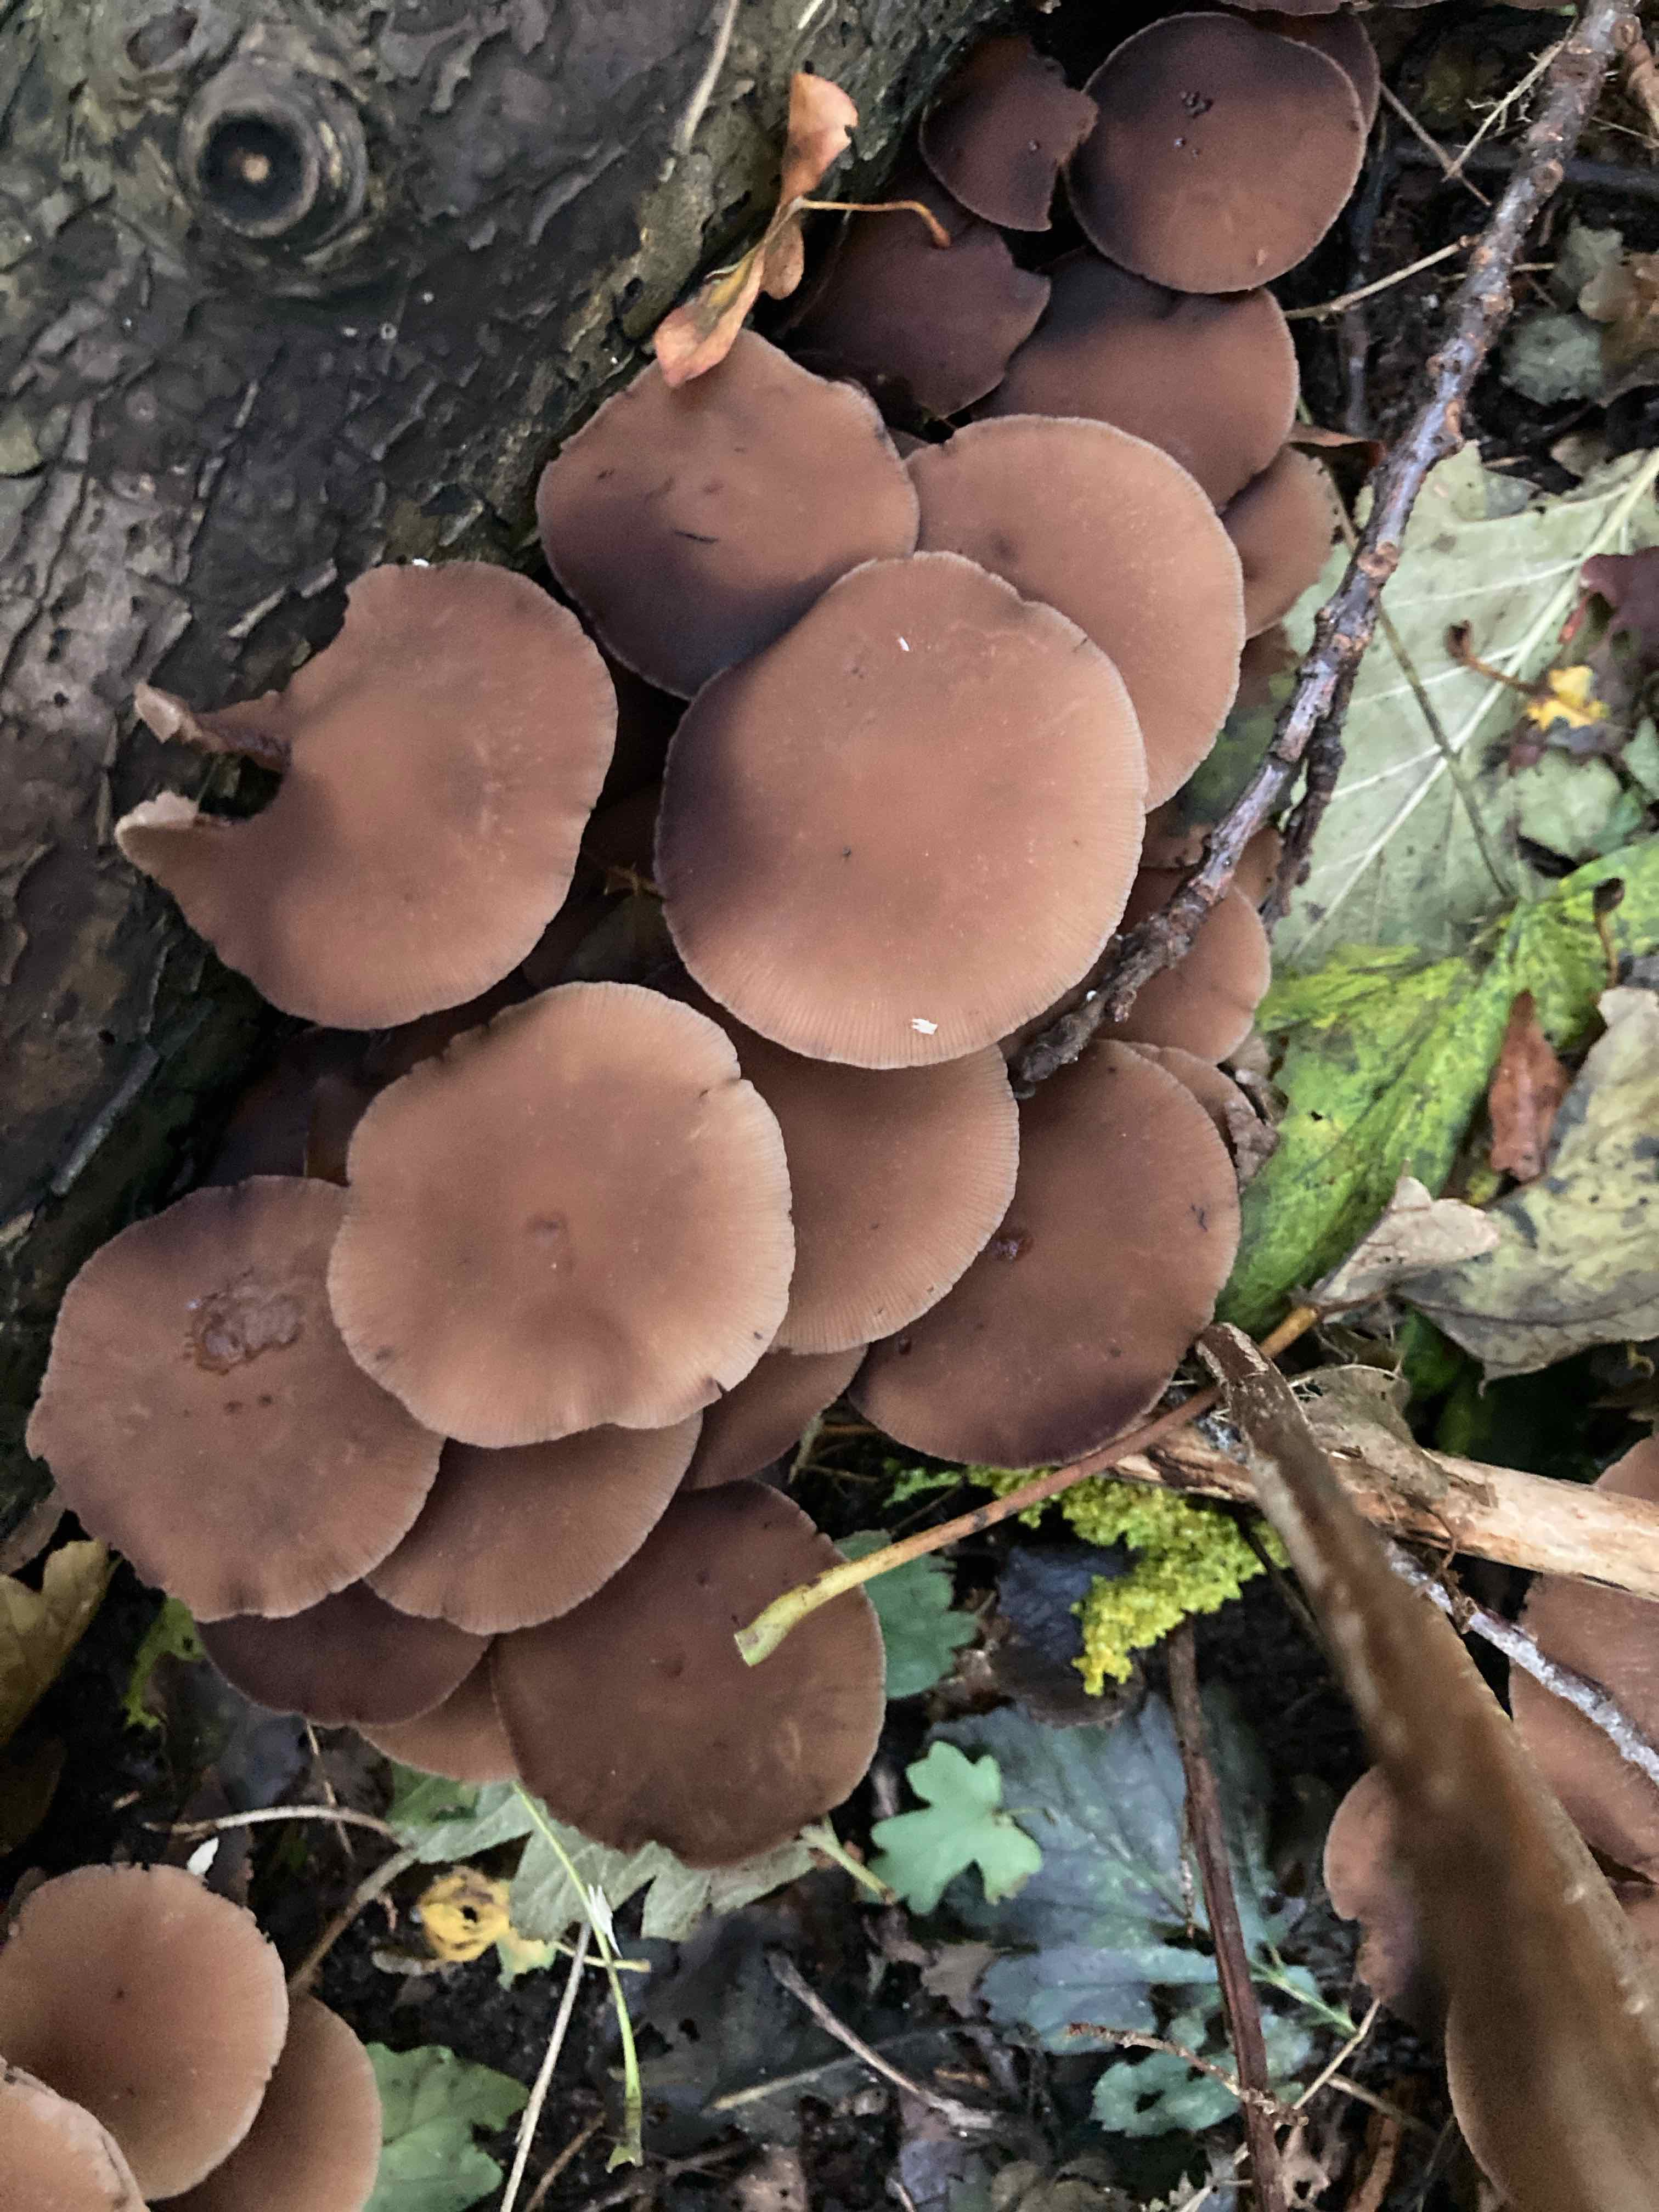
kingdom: Fungi
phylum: Basidiomycota
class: Agaricomycetes
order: Agaricales
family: Psathyrellaceae
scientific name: Psathyrellaceae
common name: mørkhatfamilien
